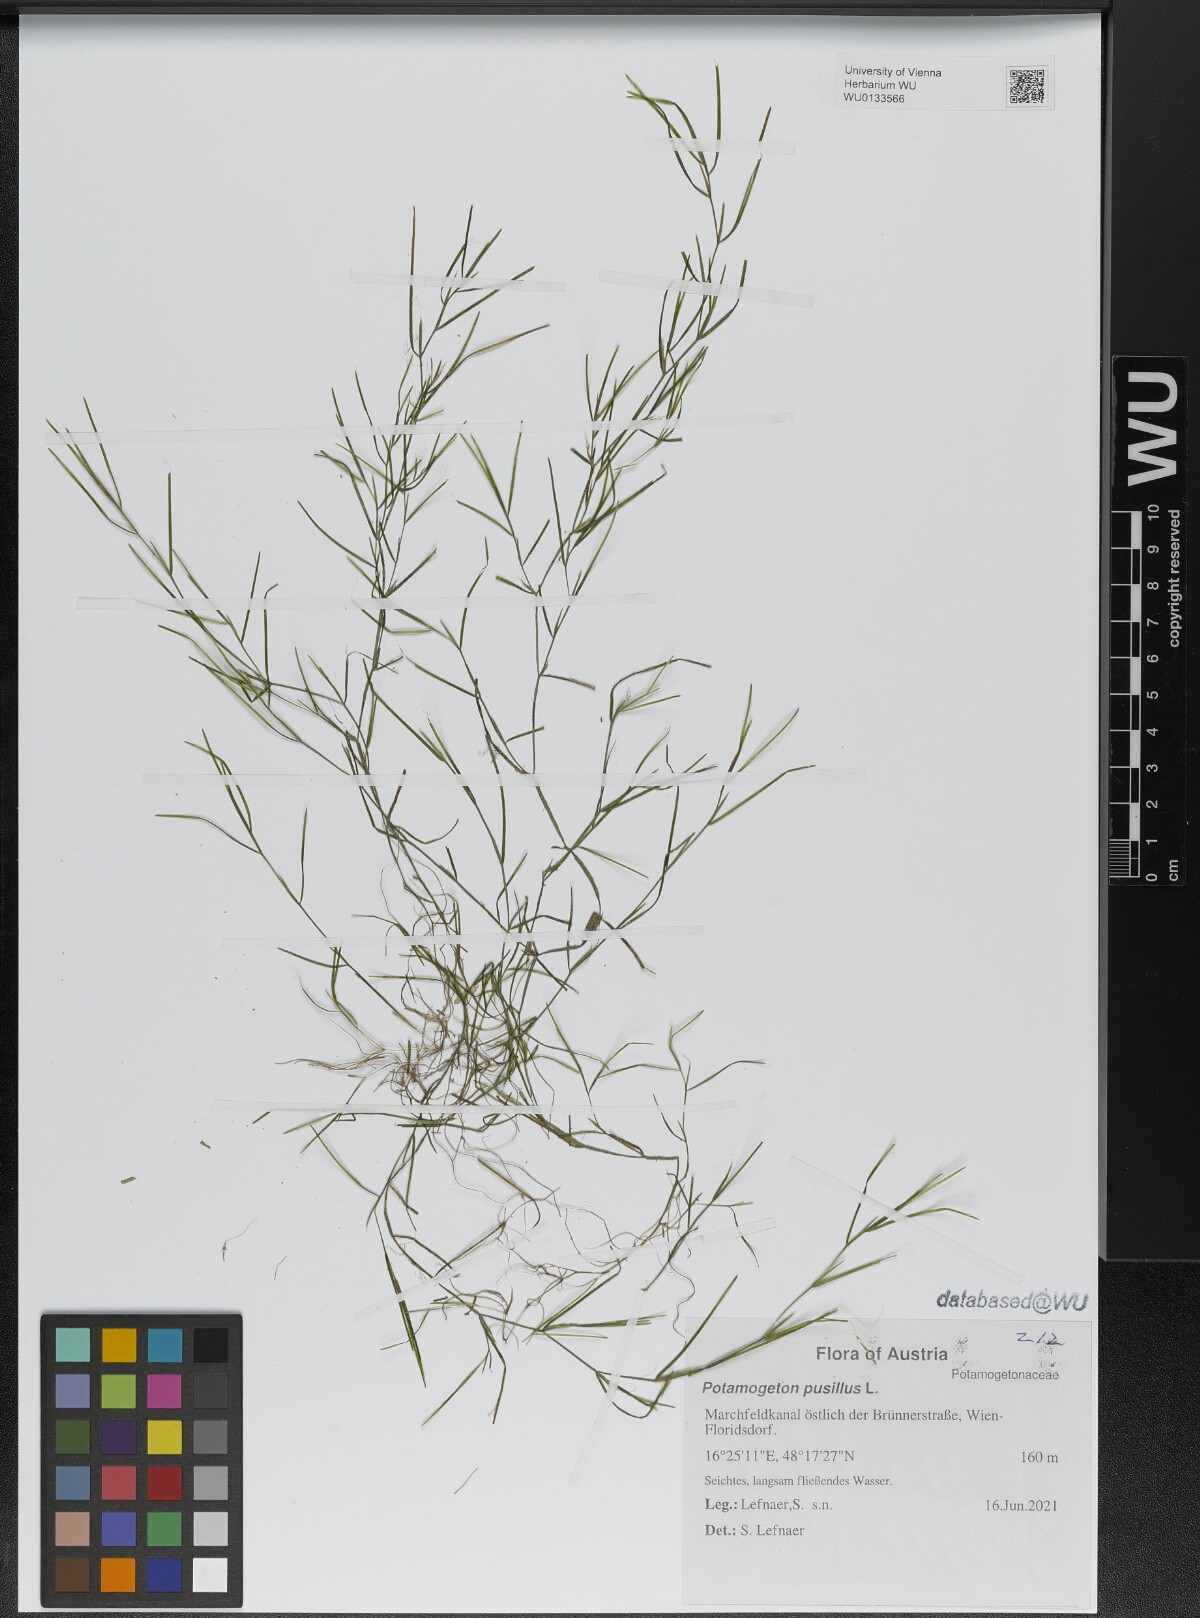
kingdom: Plantae
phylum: Tracheophyta
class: Liliopsida
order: Alismatales
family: Potamogetonaceae
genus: Potamogeton
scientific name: Potamogeton pusillus
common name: Lesser pondweed
